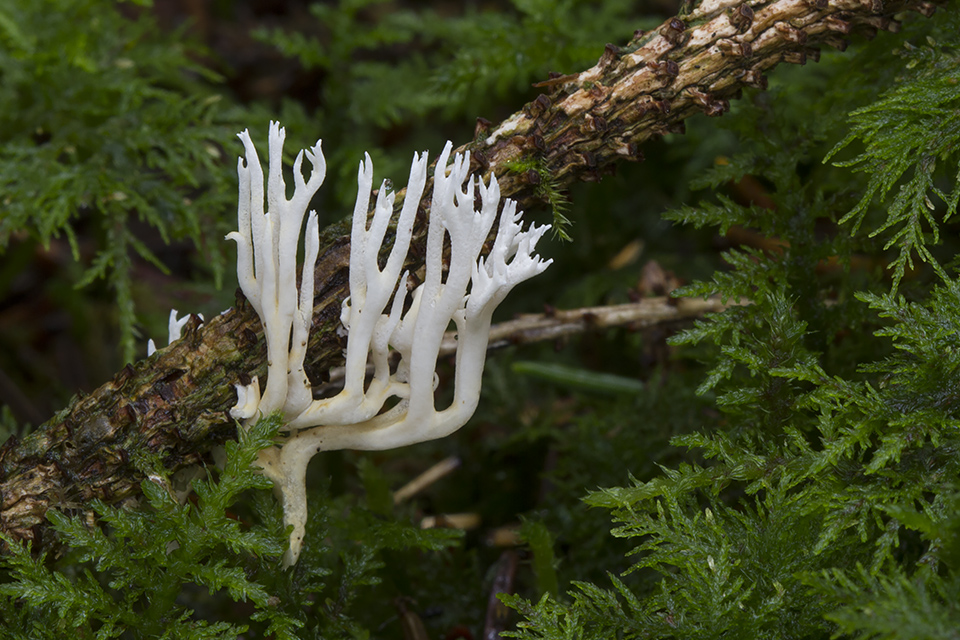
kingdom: Fungi
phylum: Basidiomycota
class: Agaricomycetes
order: Gomphales
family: Gomphaceae
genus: Ramaria
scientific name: Ramaria gracilis
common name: anis-koralsvamp
